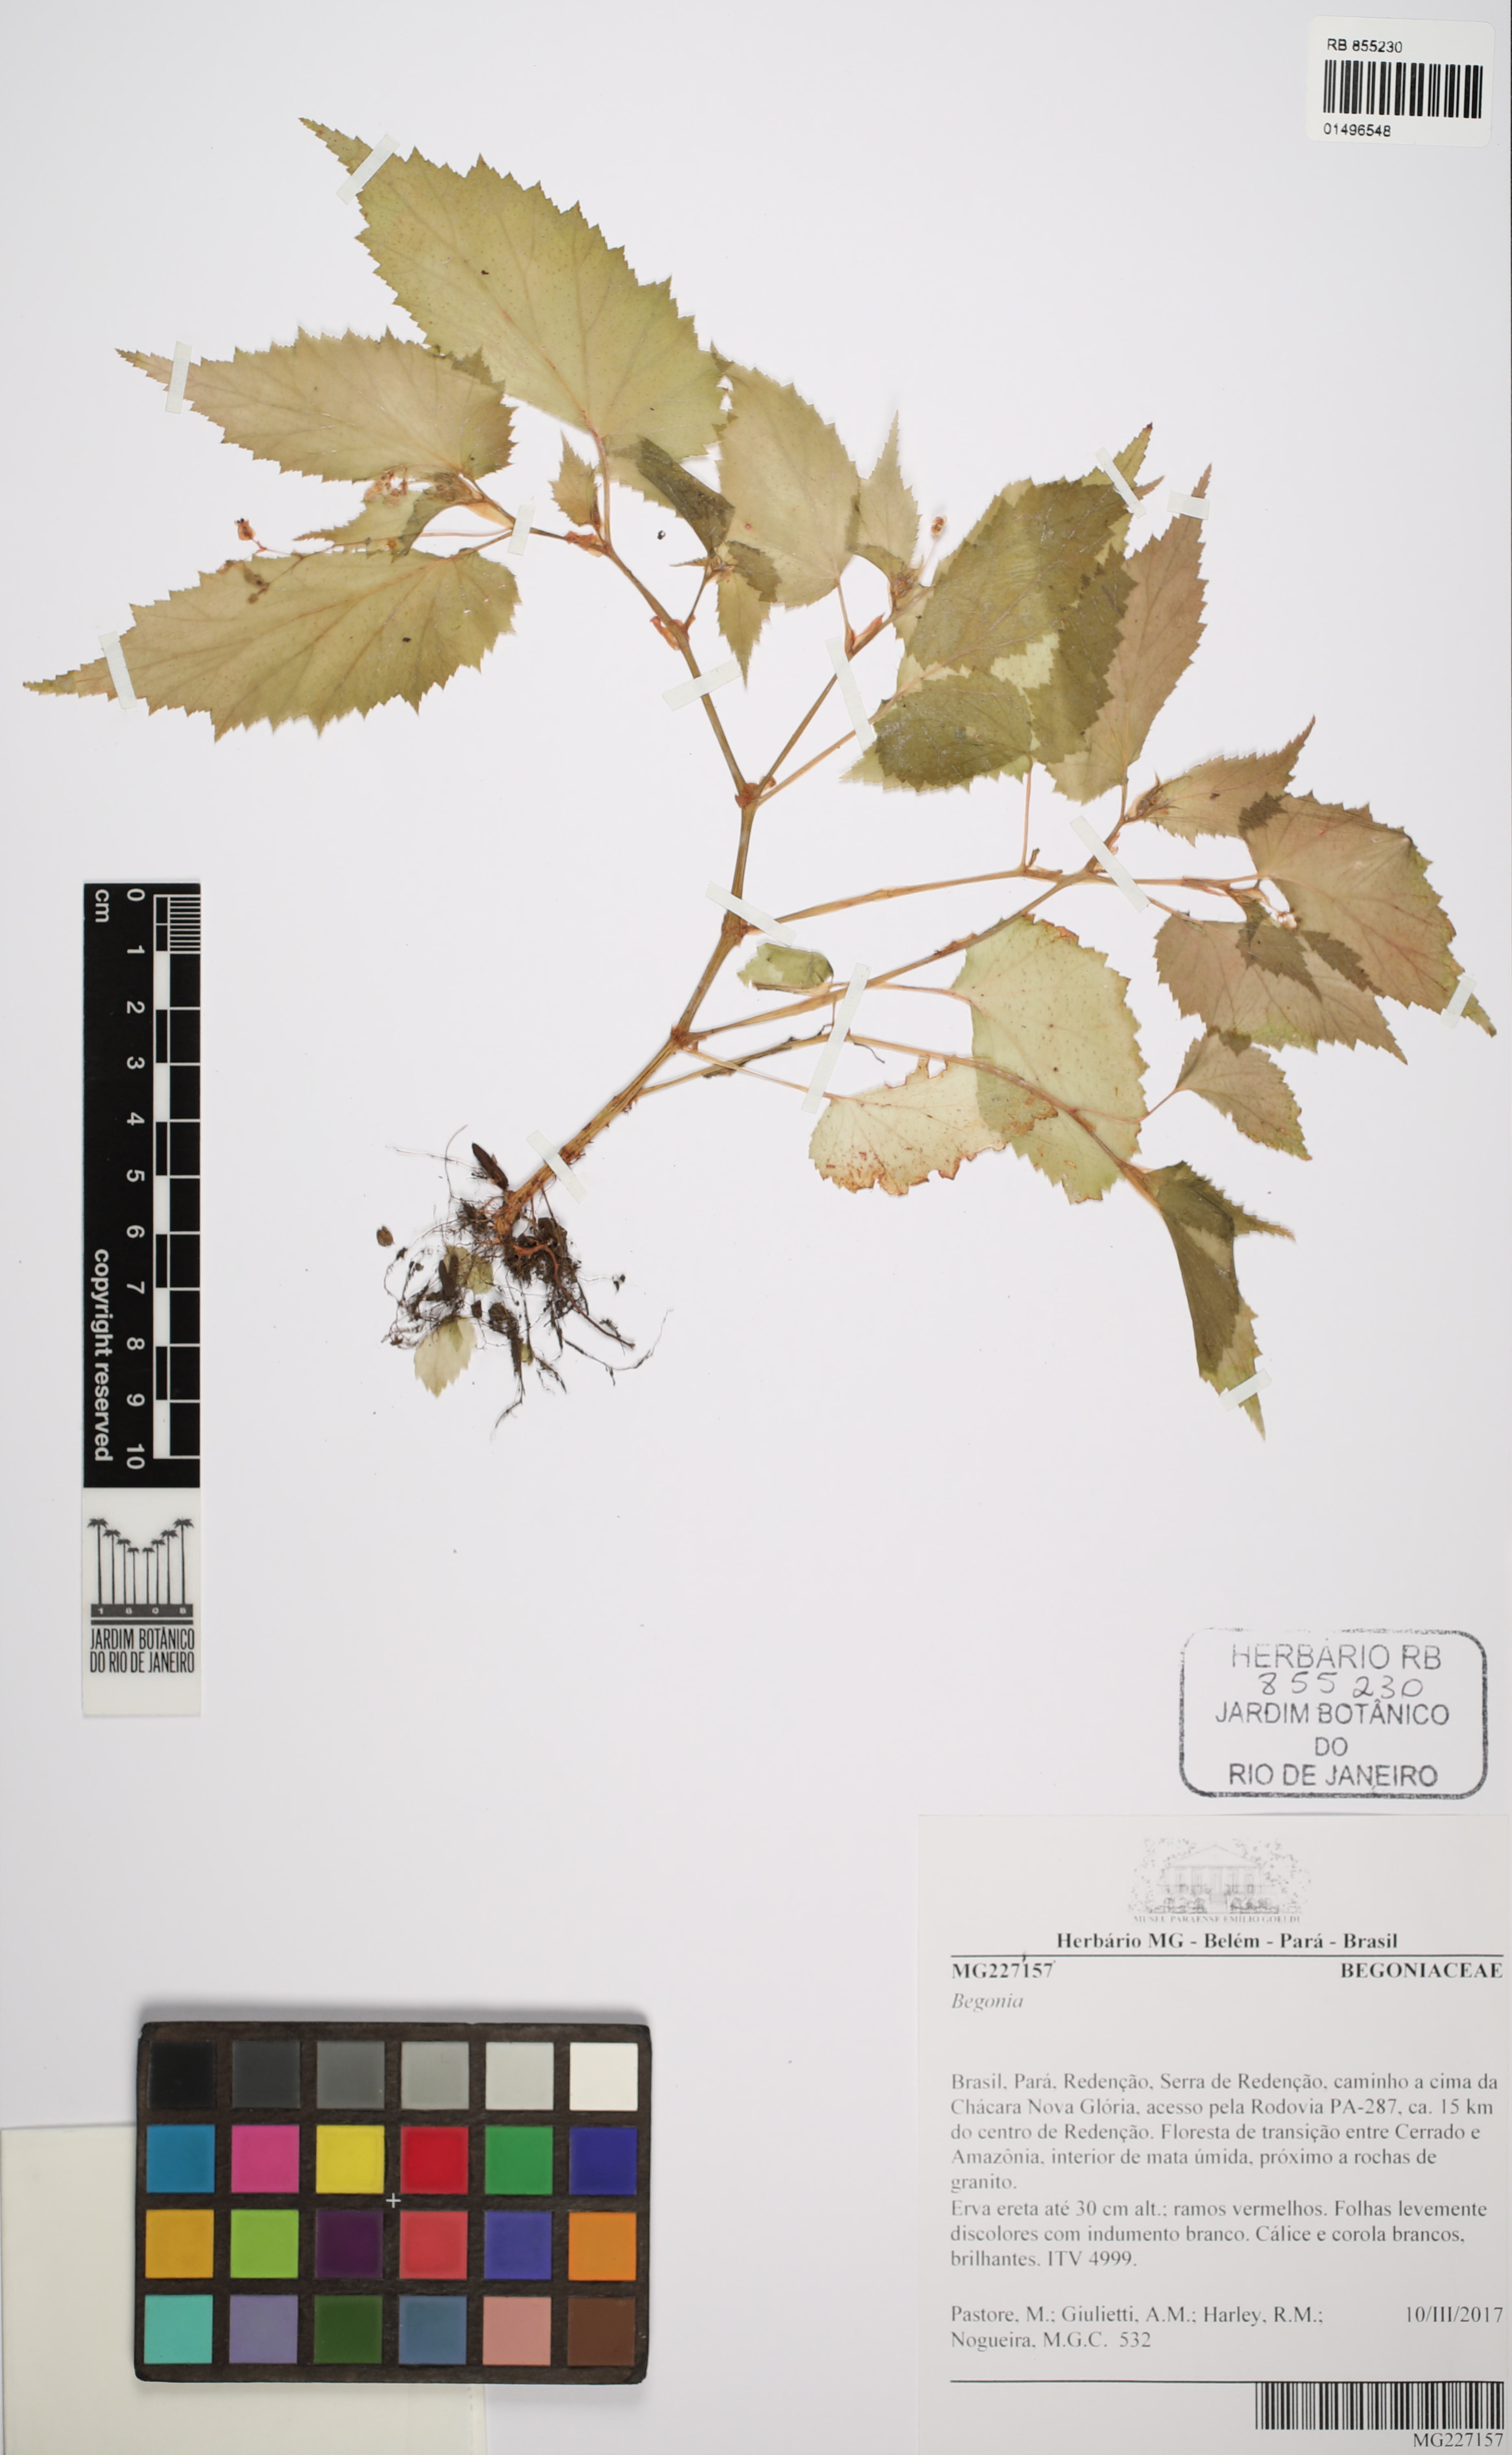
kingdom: Plantae
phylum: Tracheophyta
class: Magnoliopsida
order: Cucurbitales
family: Begoniaceae
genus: Begonia
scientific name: Begonia
